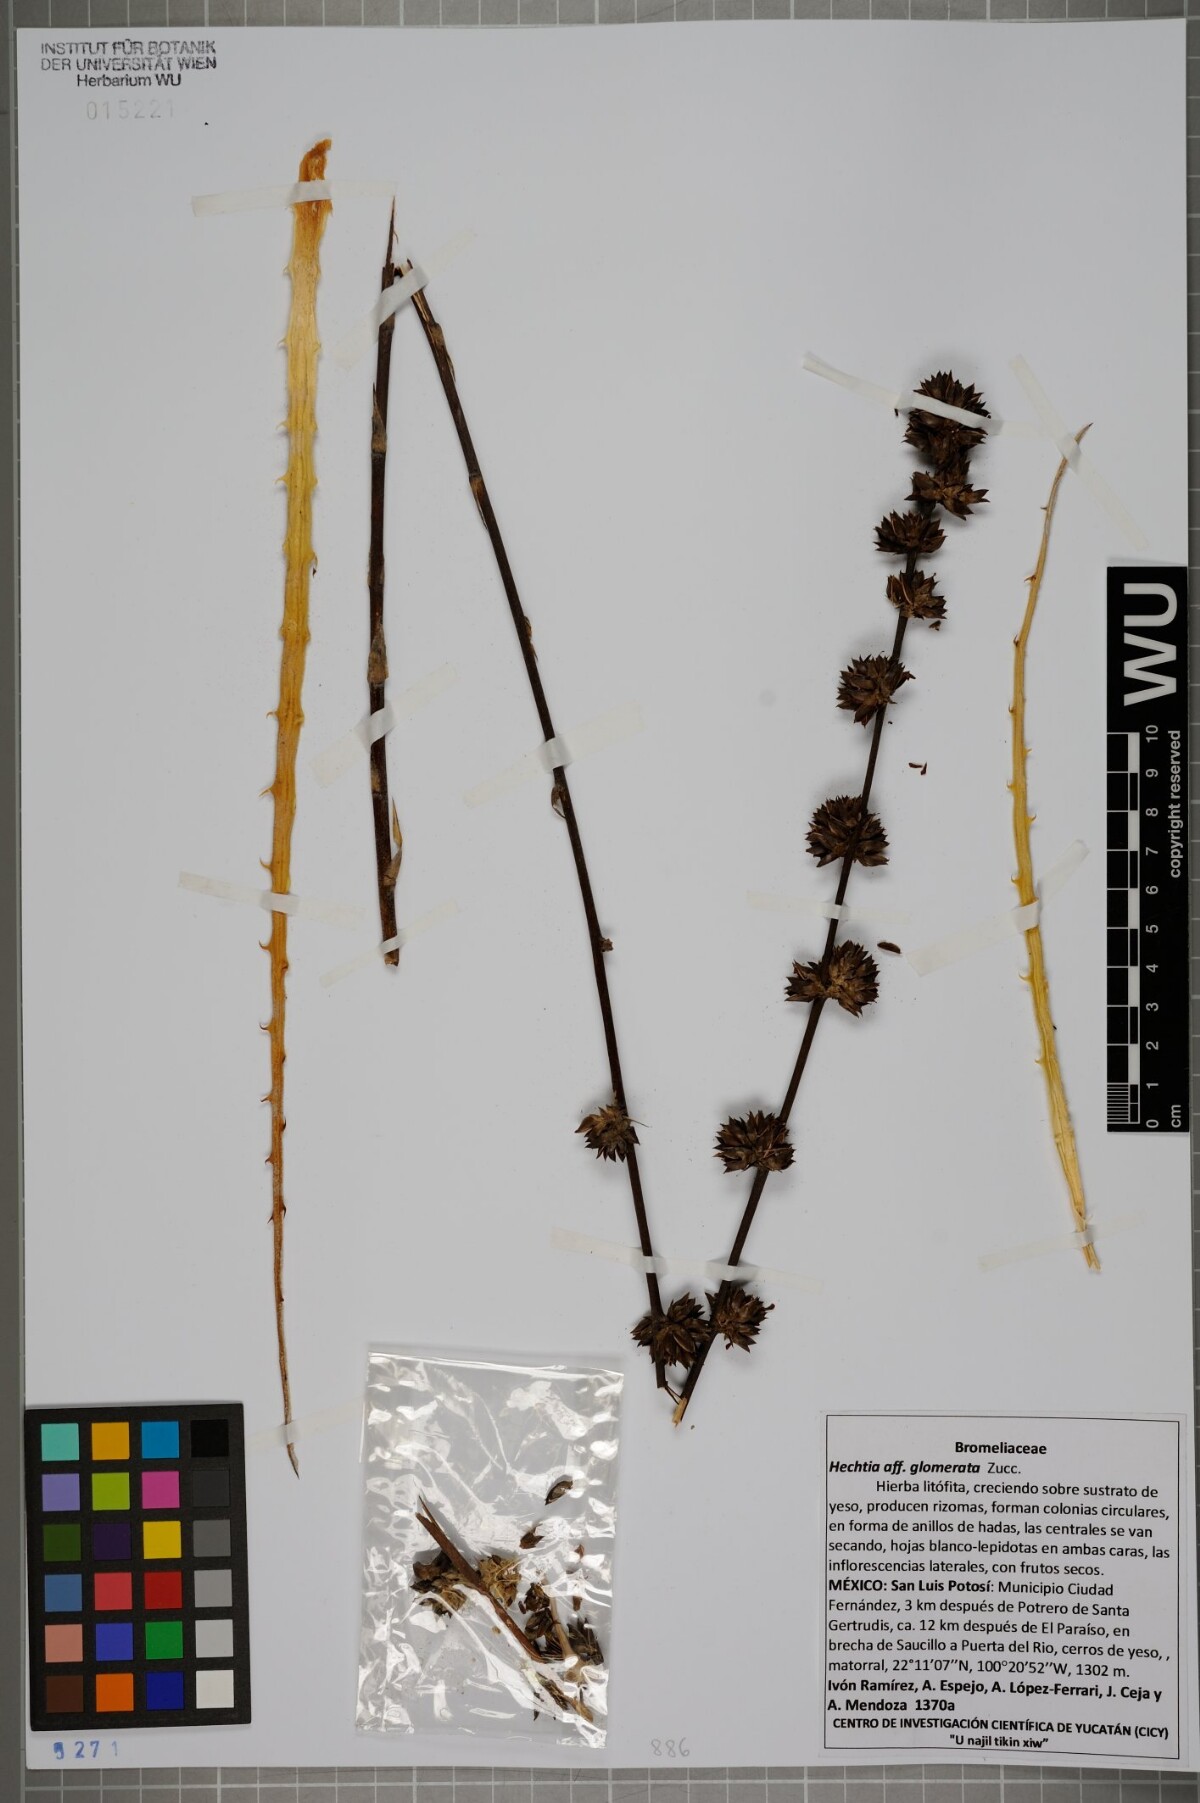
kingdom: Plantae
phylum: Tracheophyta
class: Liliopsida
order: Poales
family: Bromeliaceae
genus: Hechtia
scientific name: Hechtia glomerata
